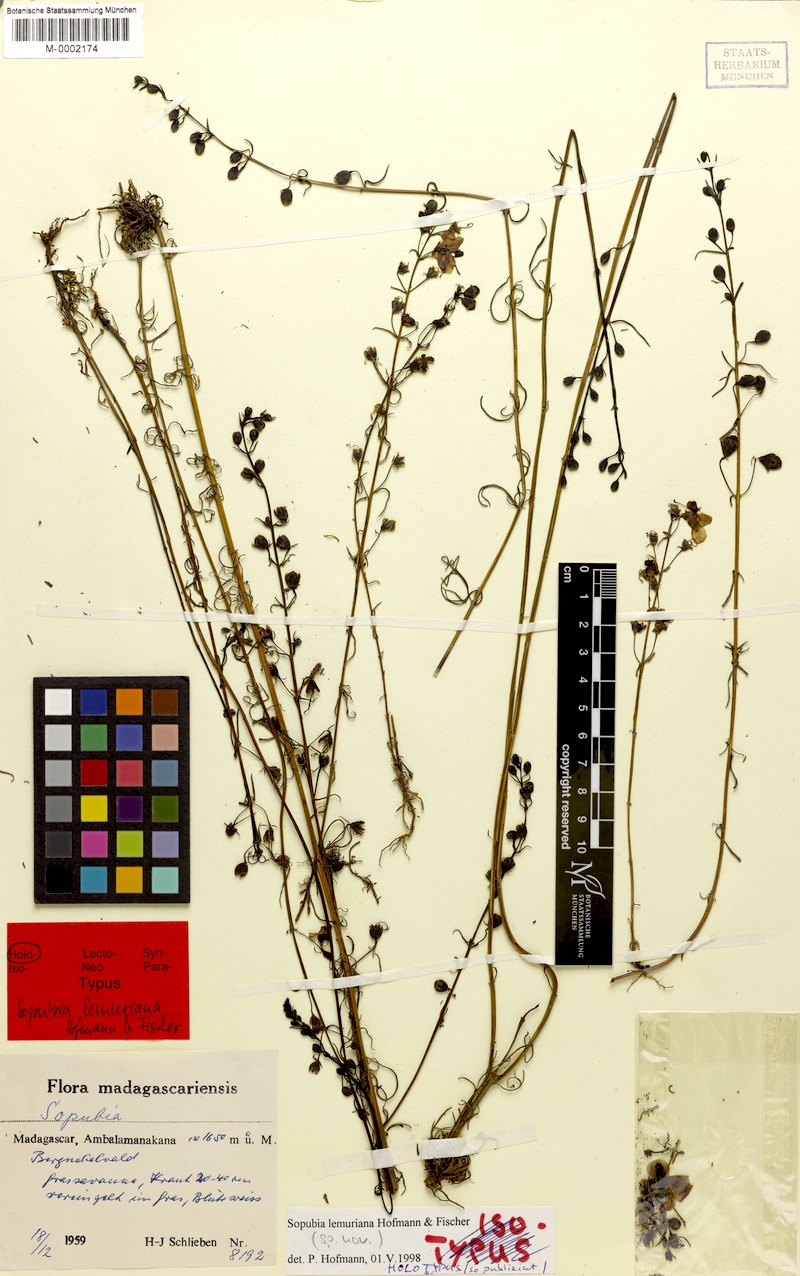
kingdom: Plantae
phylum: Tracheophyta
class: Magnoliopsida
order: Lamiales
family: Orobanchaceae
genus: Sopubia
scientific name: Sopubia lemuriana
